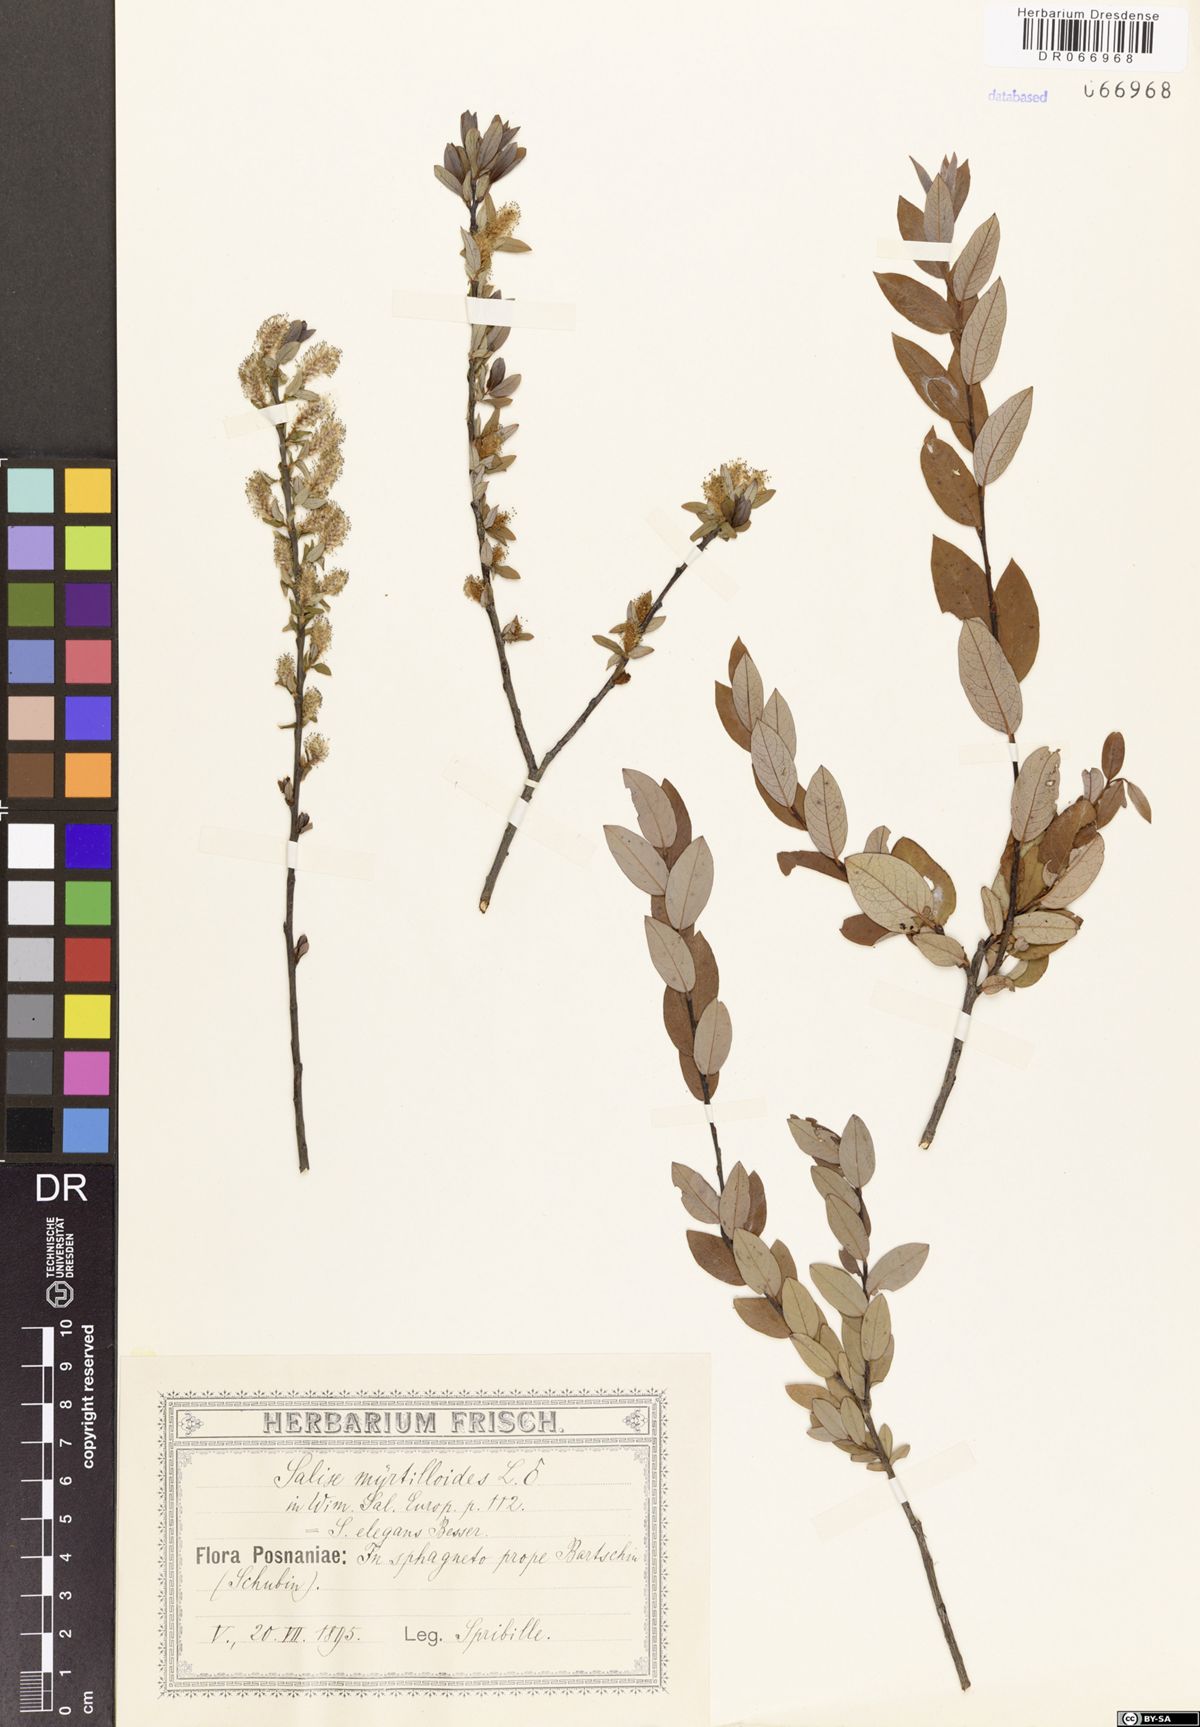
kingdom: Plantae
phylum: Tracheophyta
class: Magnoliopsida
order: Malpighiales
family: Salicaceae
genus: Salix
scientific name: Salix myrtilloides
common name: Myrtle-leaved willow
